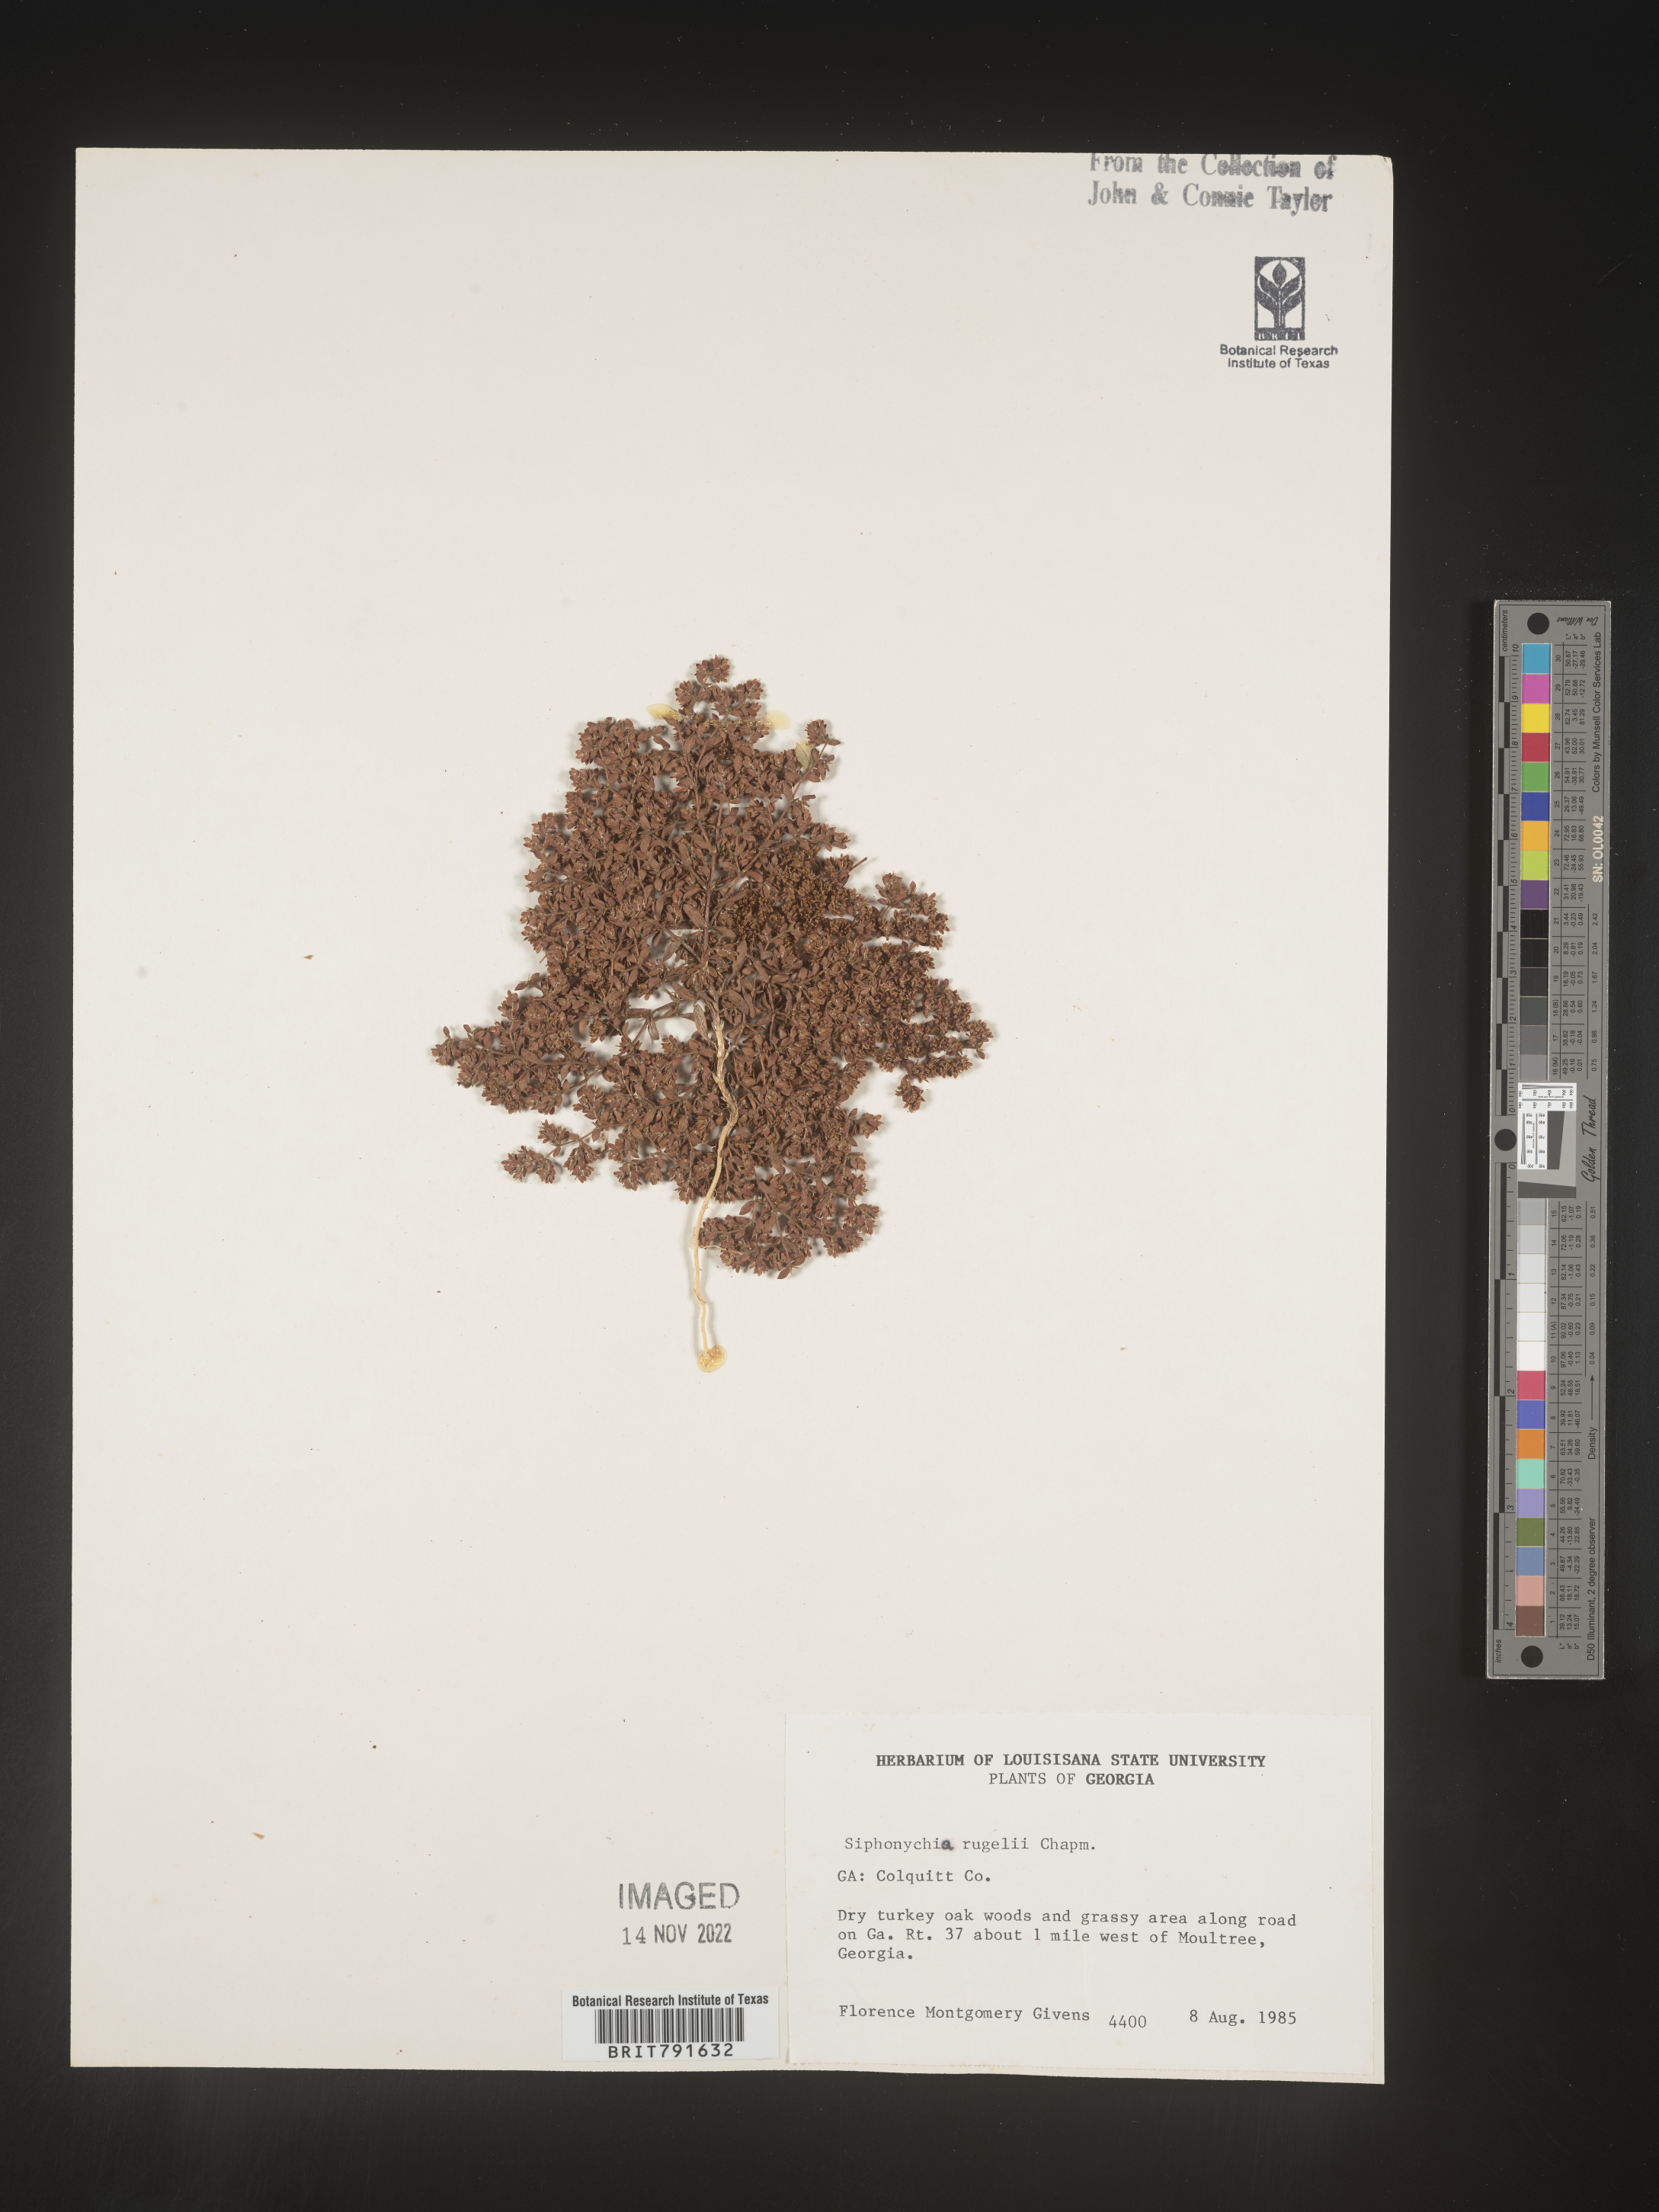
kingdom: Plantae
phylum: Tracheophyta
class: Magnoliopsida
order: Caryophyllales
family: Caryophyllaceae
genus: Paronychia
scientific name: Paronychia rugelii
